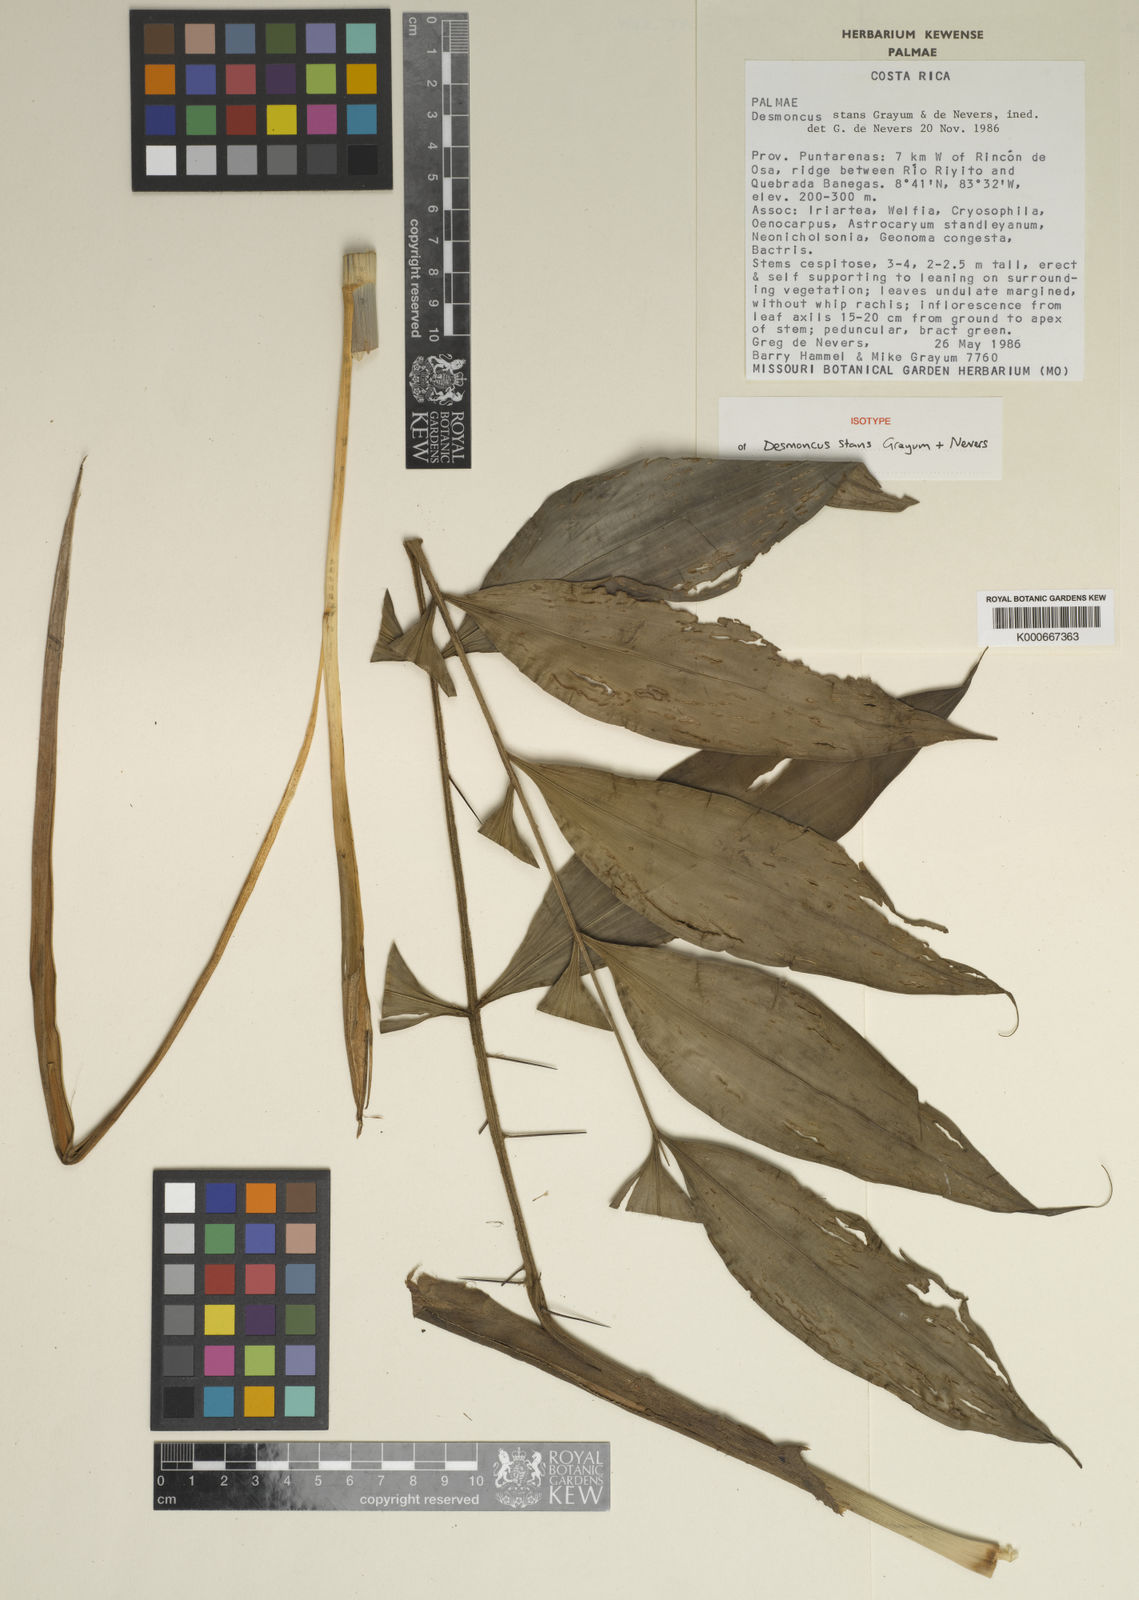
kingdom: Plantae
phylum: Tracheophyta
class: Liliopsida
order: Arecales
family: Arecaceae
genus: Desmoncus
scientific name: Desmoncus stans
